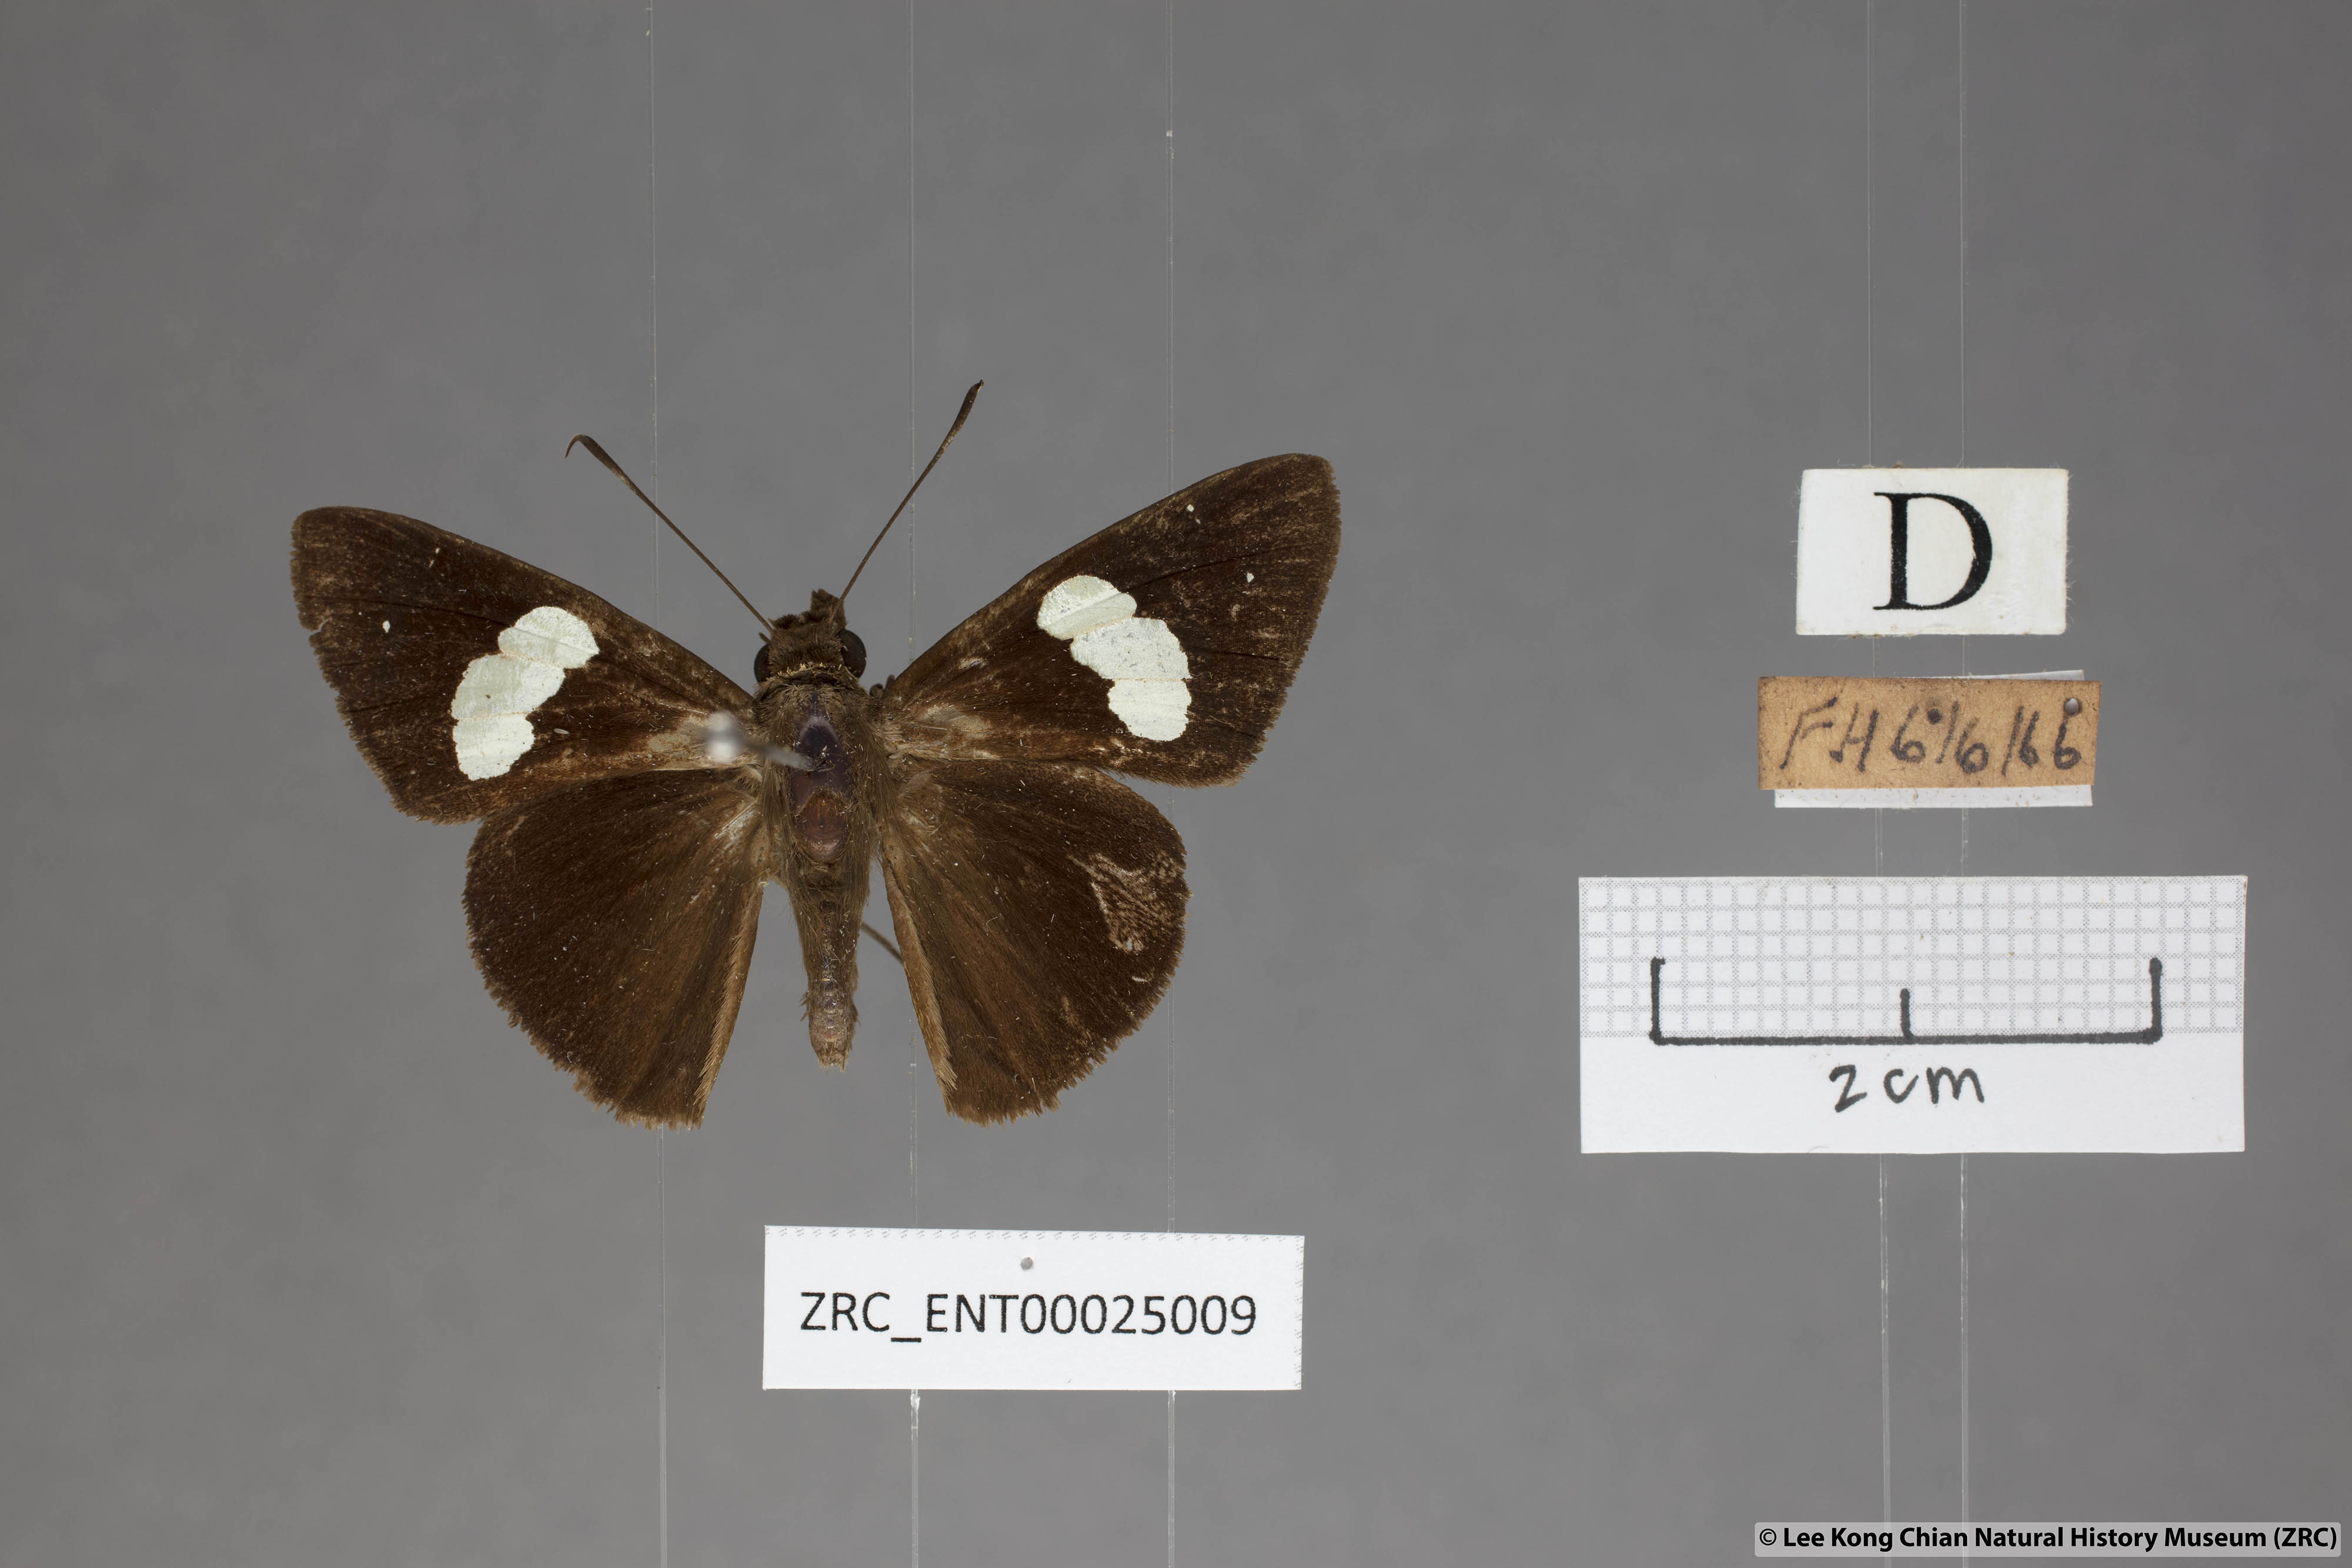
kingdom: Animalia
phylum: Arthropoda
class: Insecta
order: Lepidoptera
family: Hesperiidae
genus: Notocrypta
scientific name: Notocrypta curvifascia
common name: Restricted demon
